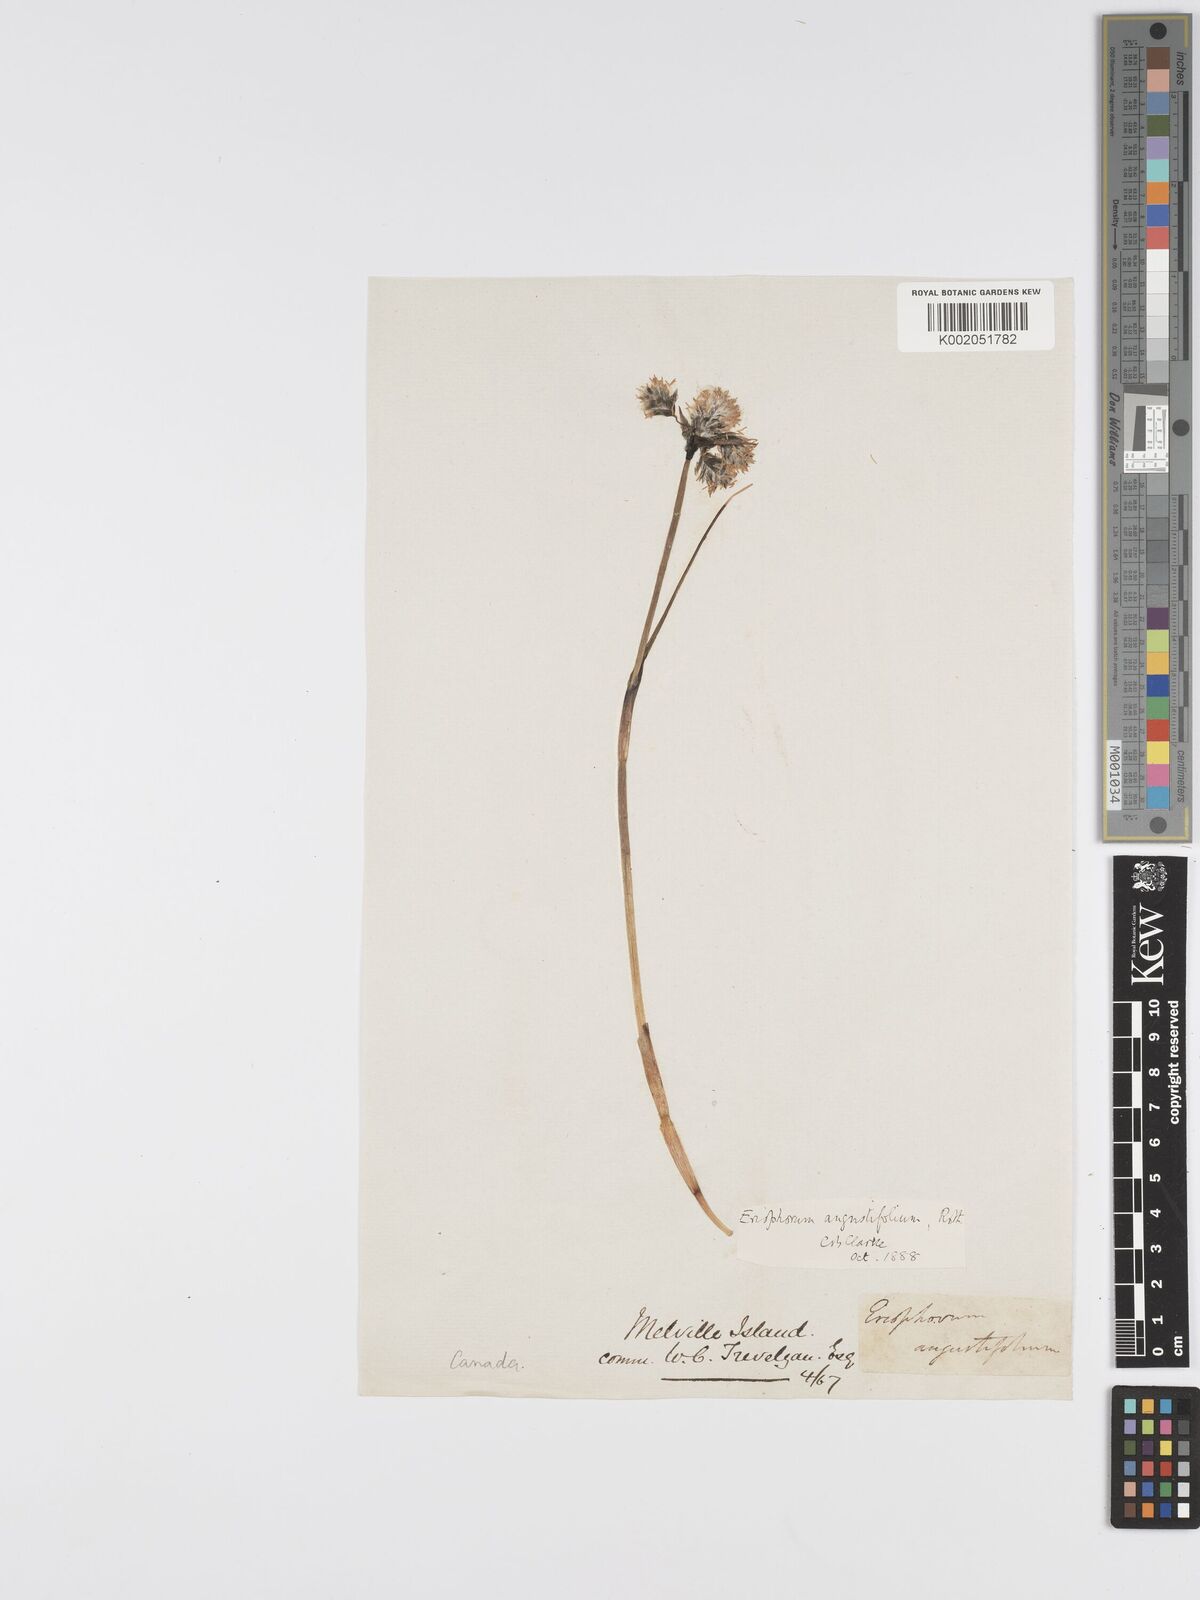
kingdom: Plantae
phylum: Tracheophyta
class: Liliopsida
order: Poales
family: Cyperaceae
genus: Eriophorum
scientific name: Eriophorum angustifolium
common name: Common cottongrass
